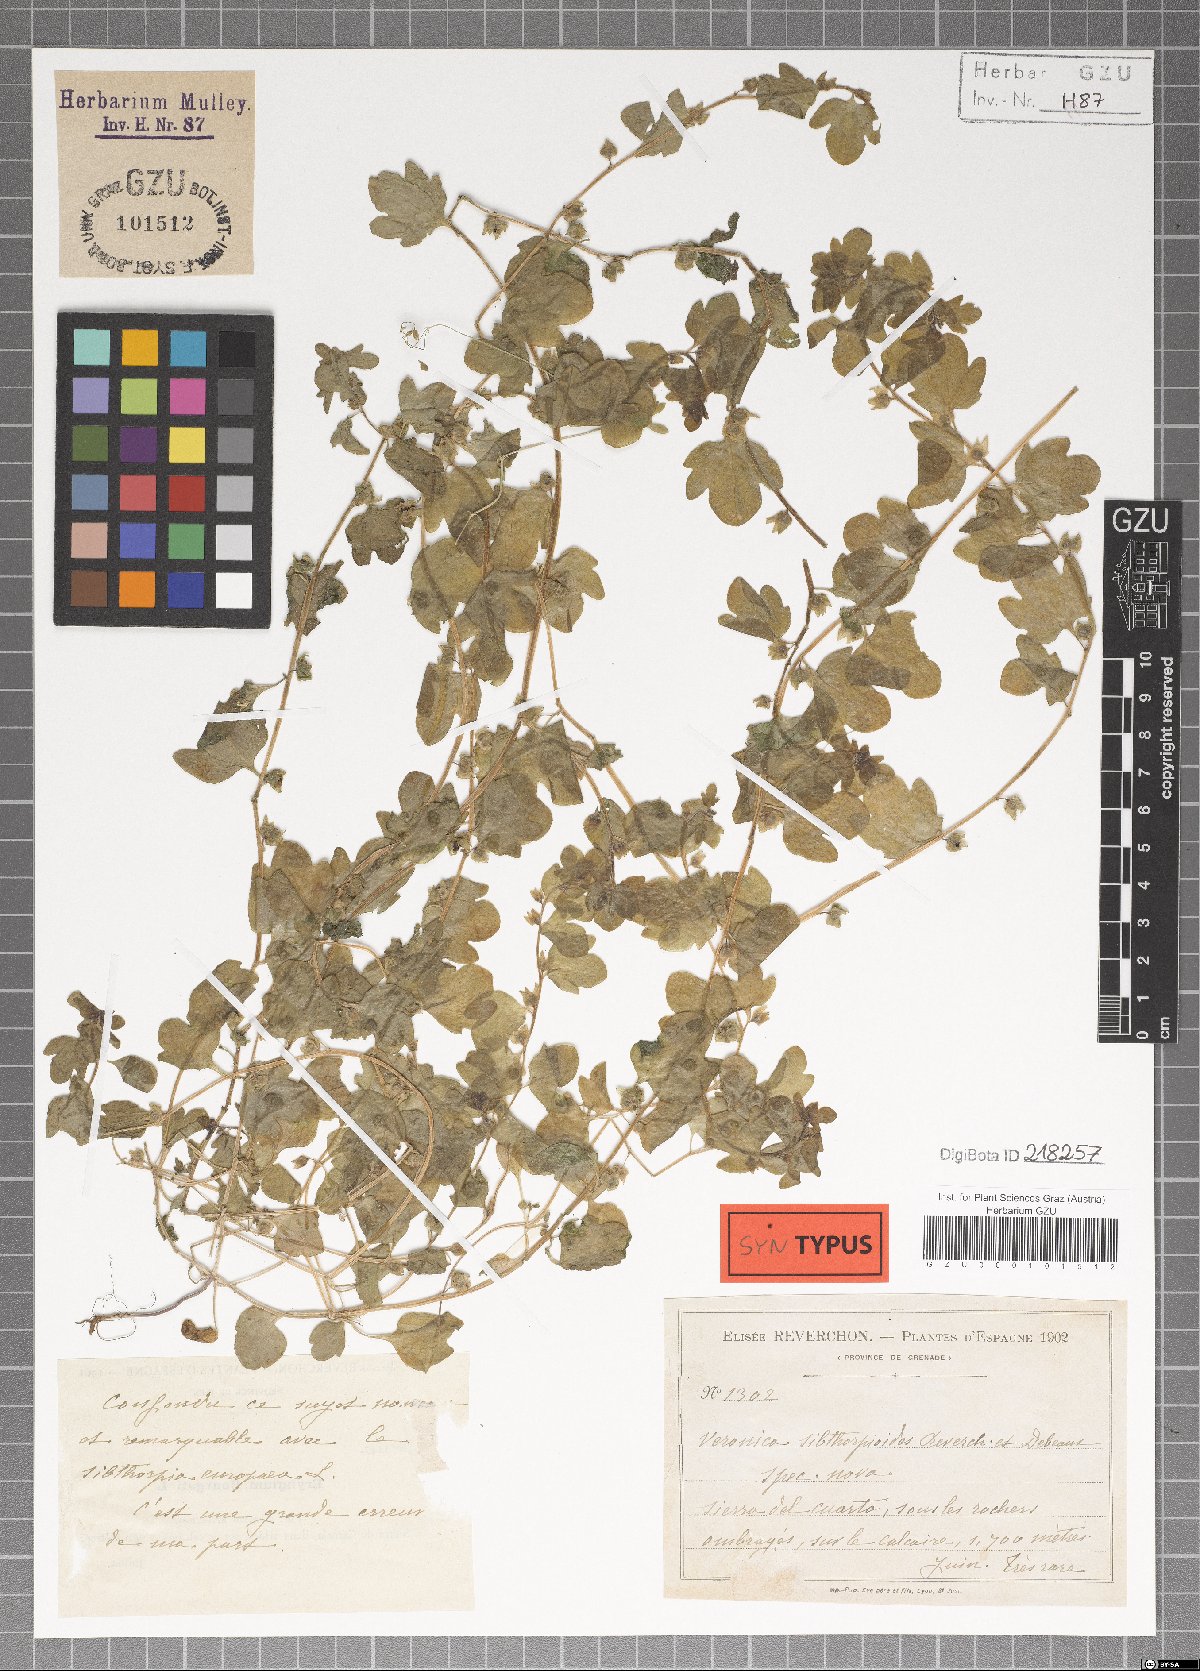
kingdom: Plantae
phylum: Tracheophyta
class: Magnoliopsida
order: Lamiales
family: Plantaginaceae
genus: Veronica
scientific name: Veronica sibthorpioides
